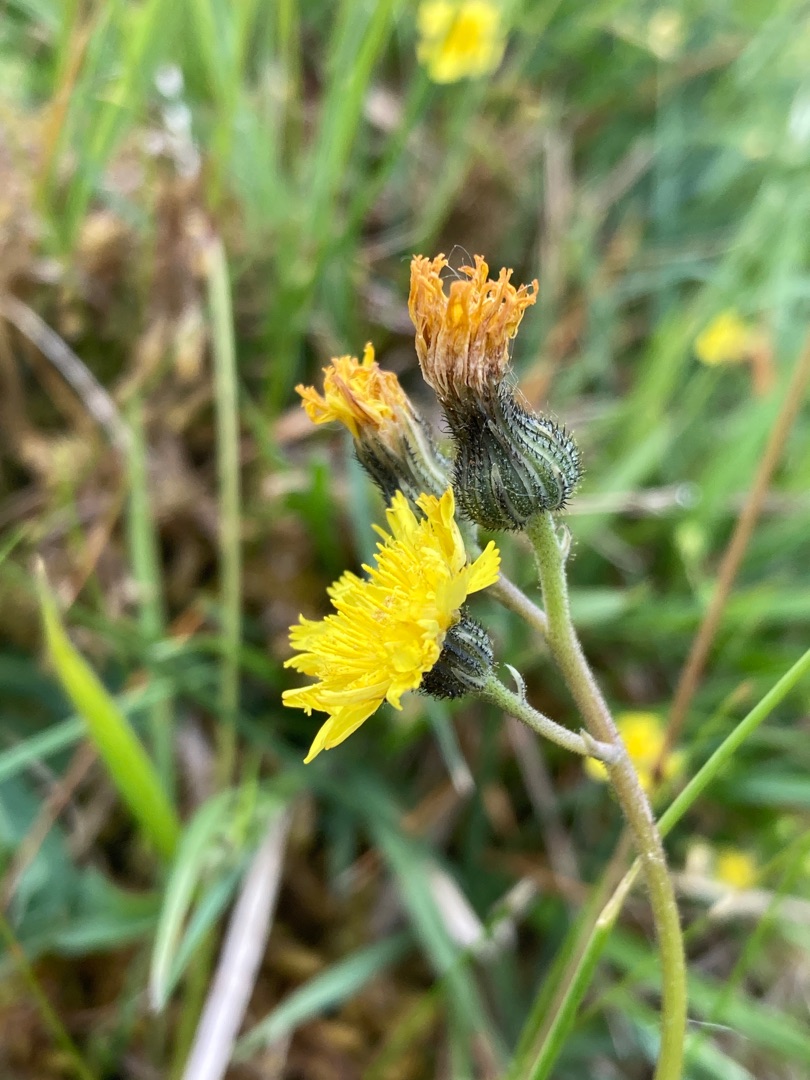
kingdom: Plantae
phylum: Tracheophyta
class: Magnoliopsida
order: Asterales
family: Asteraceae
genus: Pilosella
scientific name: Pilosella lactucella
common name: Lancetbladet høgeurt
